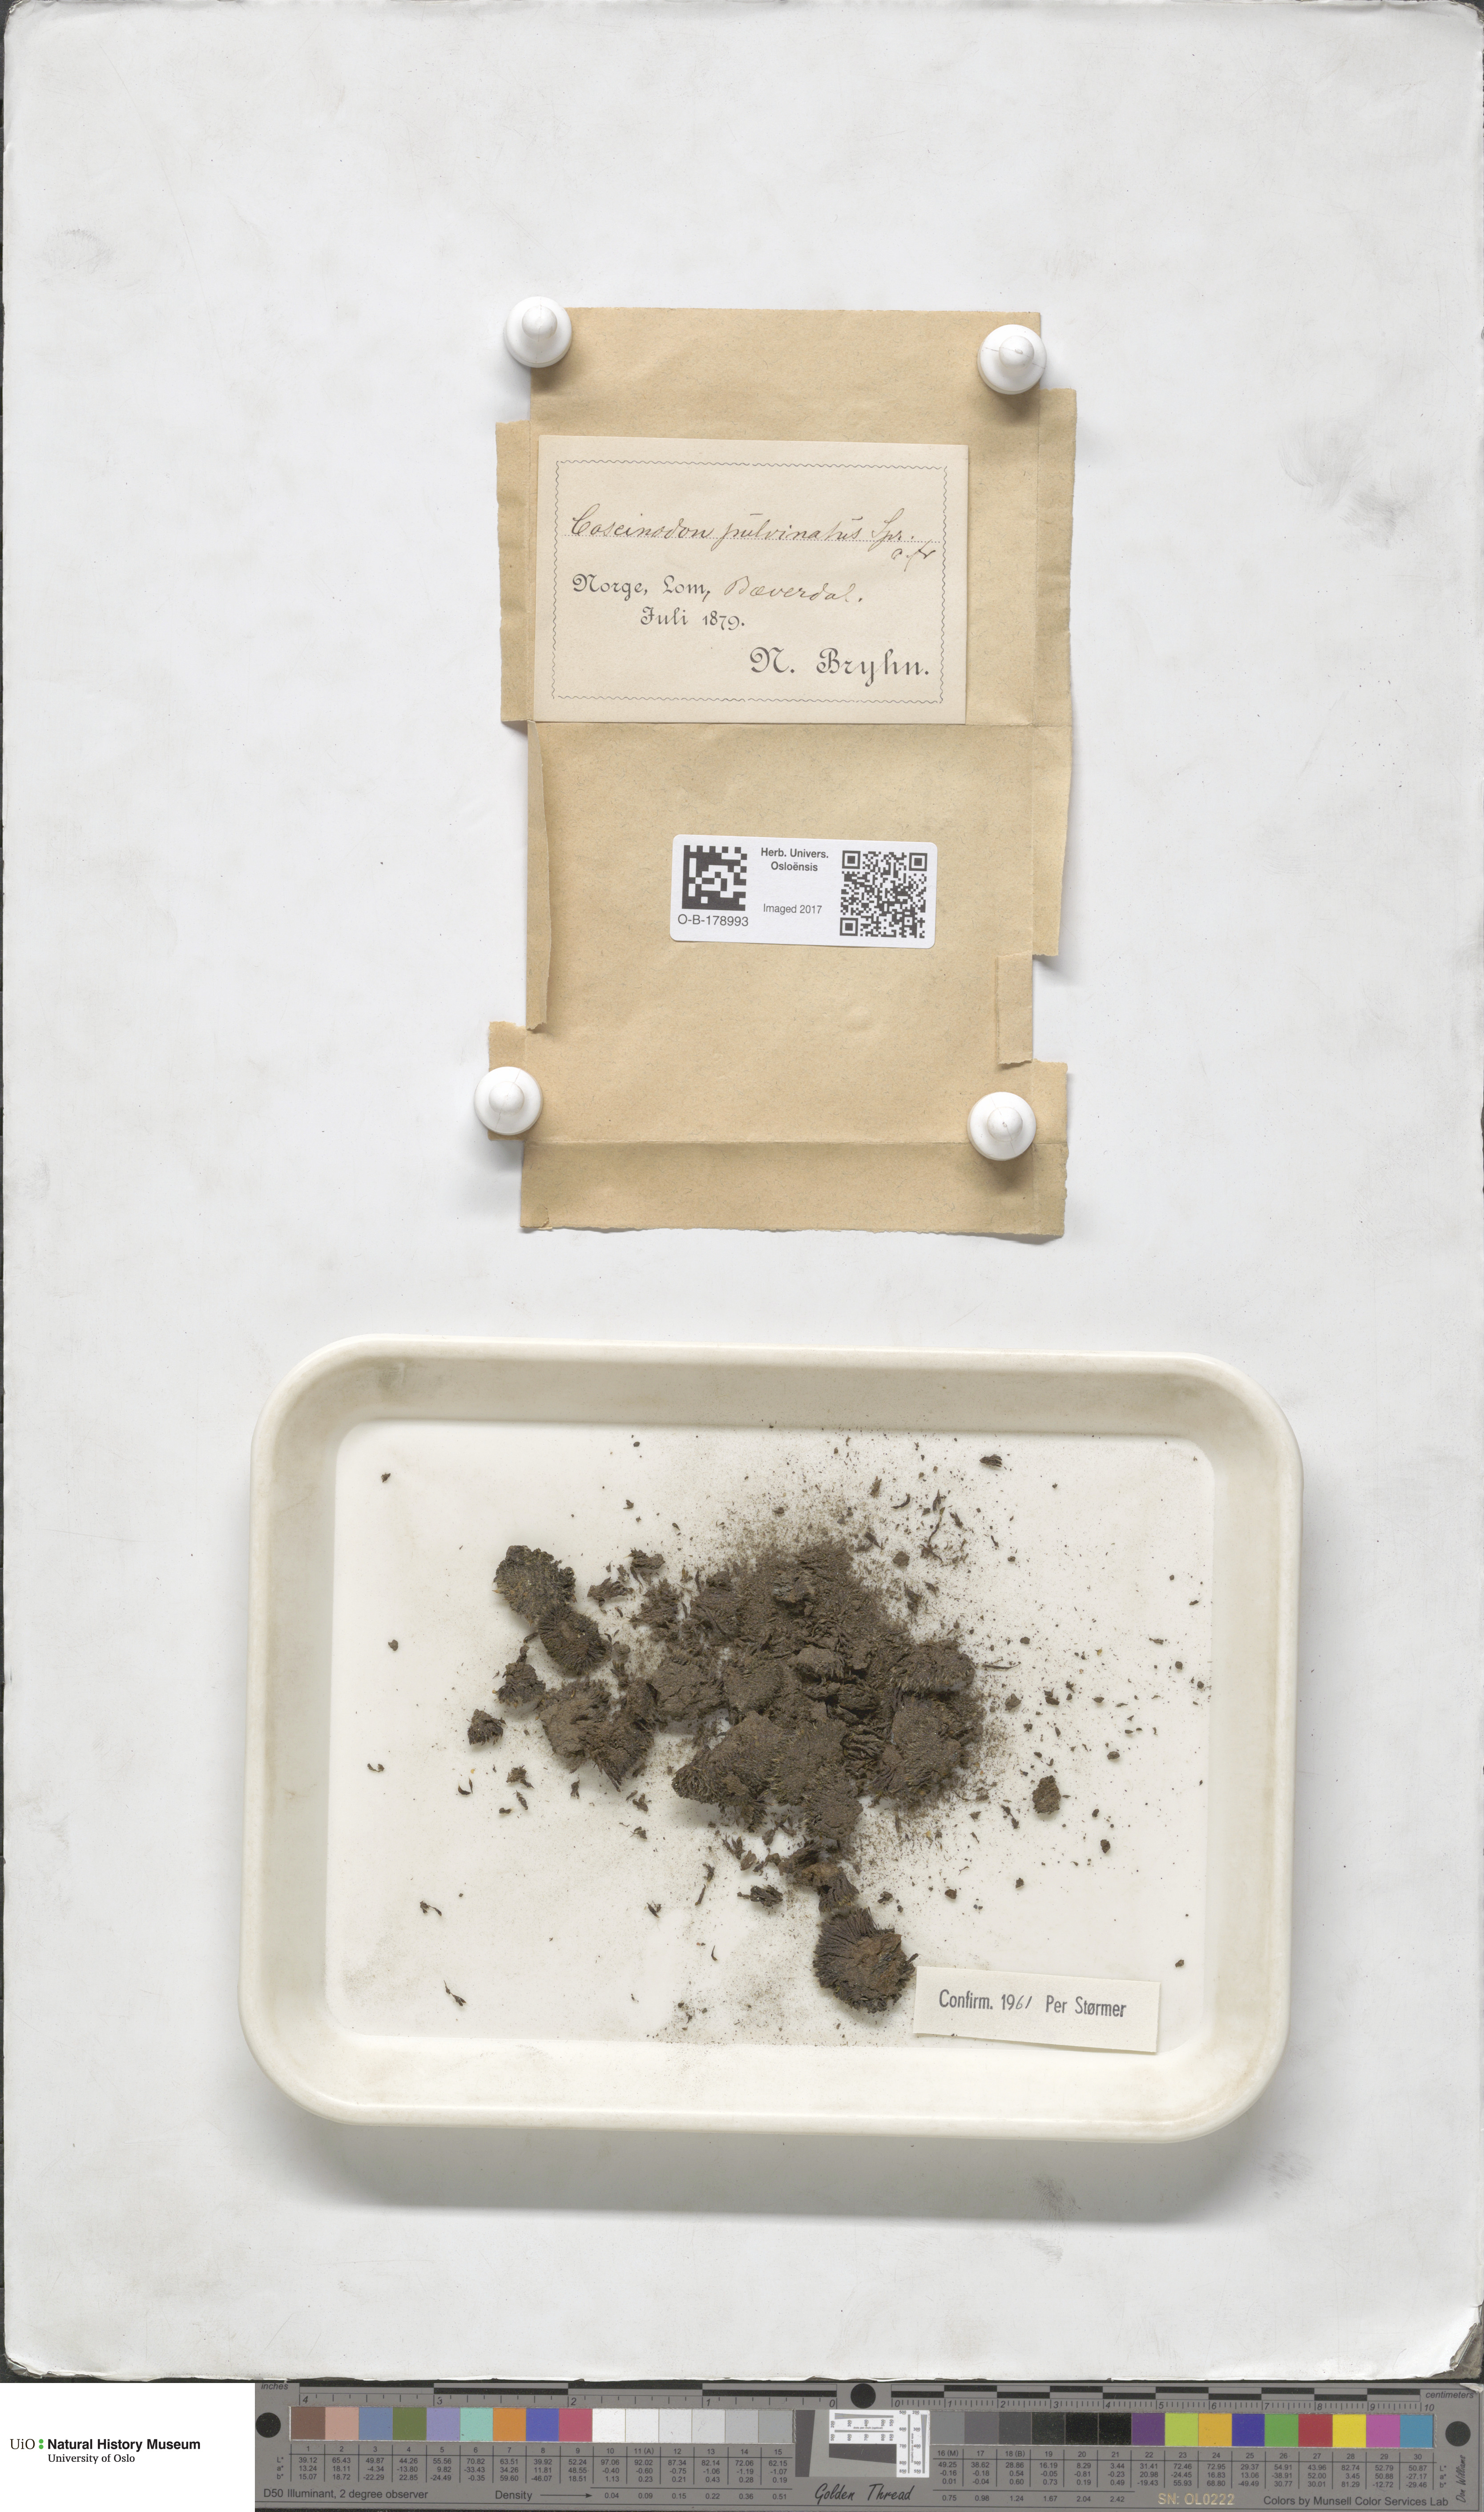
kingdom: Plantae
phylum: Bryophyta
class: Bryopsida
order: Bartramiales
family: Bartramiaceae
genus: Conostomum
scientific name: Conostomum tetragonum
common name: Helmet moss
